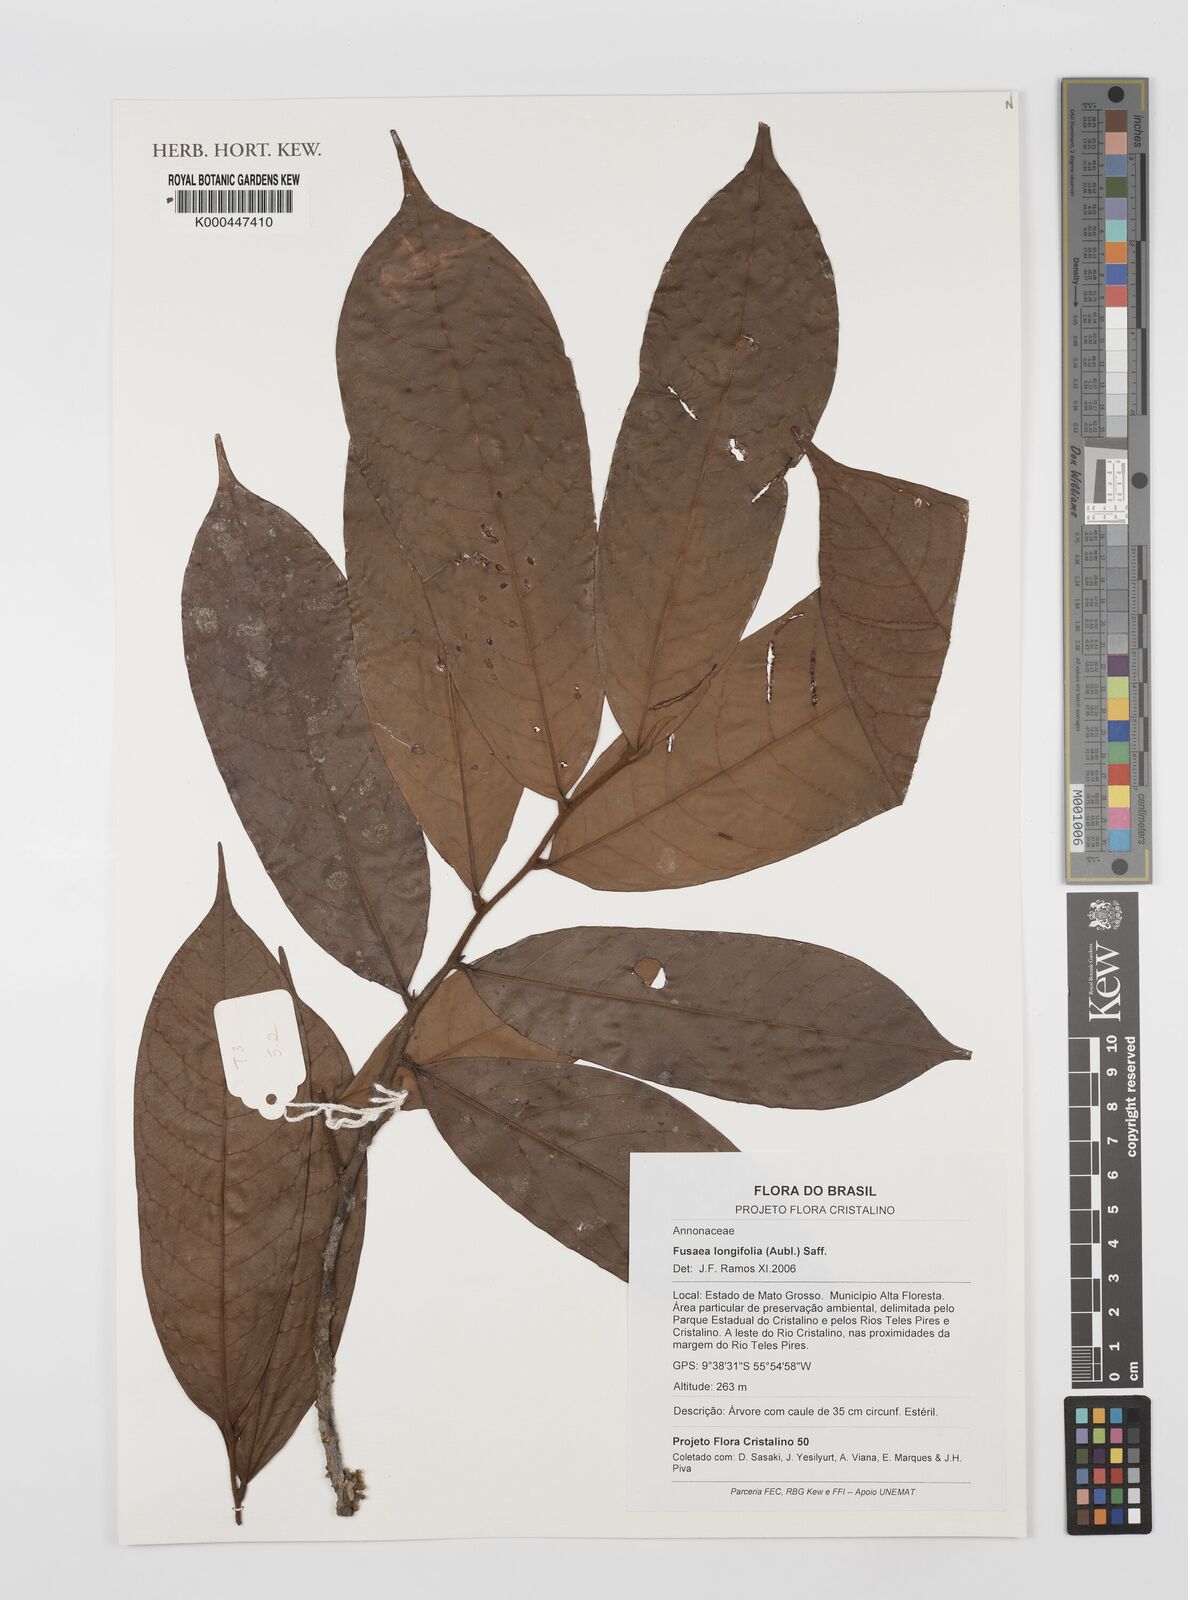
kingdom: Plantae
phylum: Tracheophyta
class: Magnoliopsida
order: Magnoliales
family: Annonaceae
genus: Fusaea
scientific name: Fusaea longifolia
